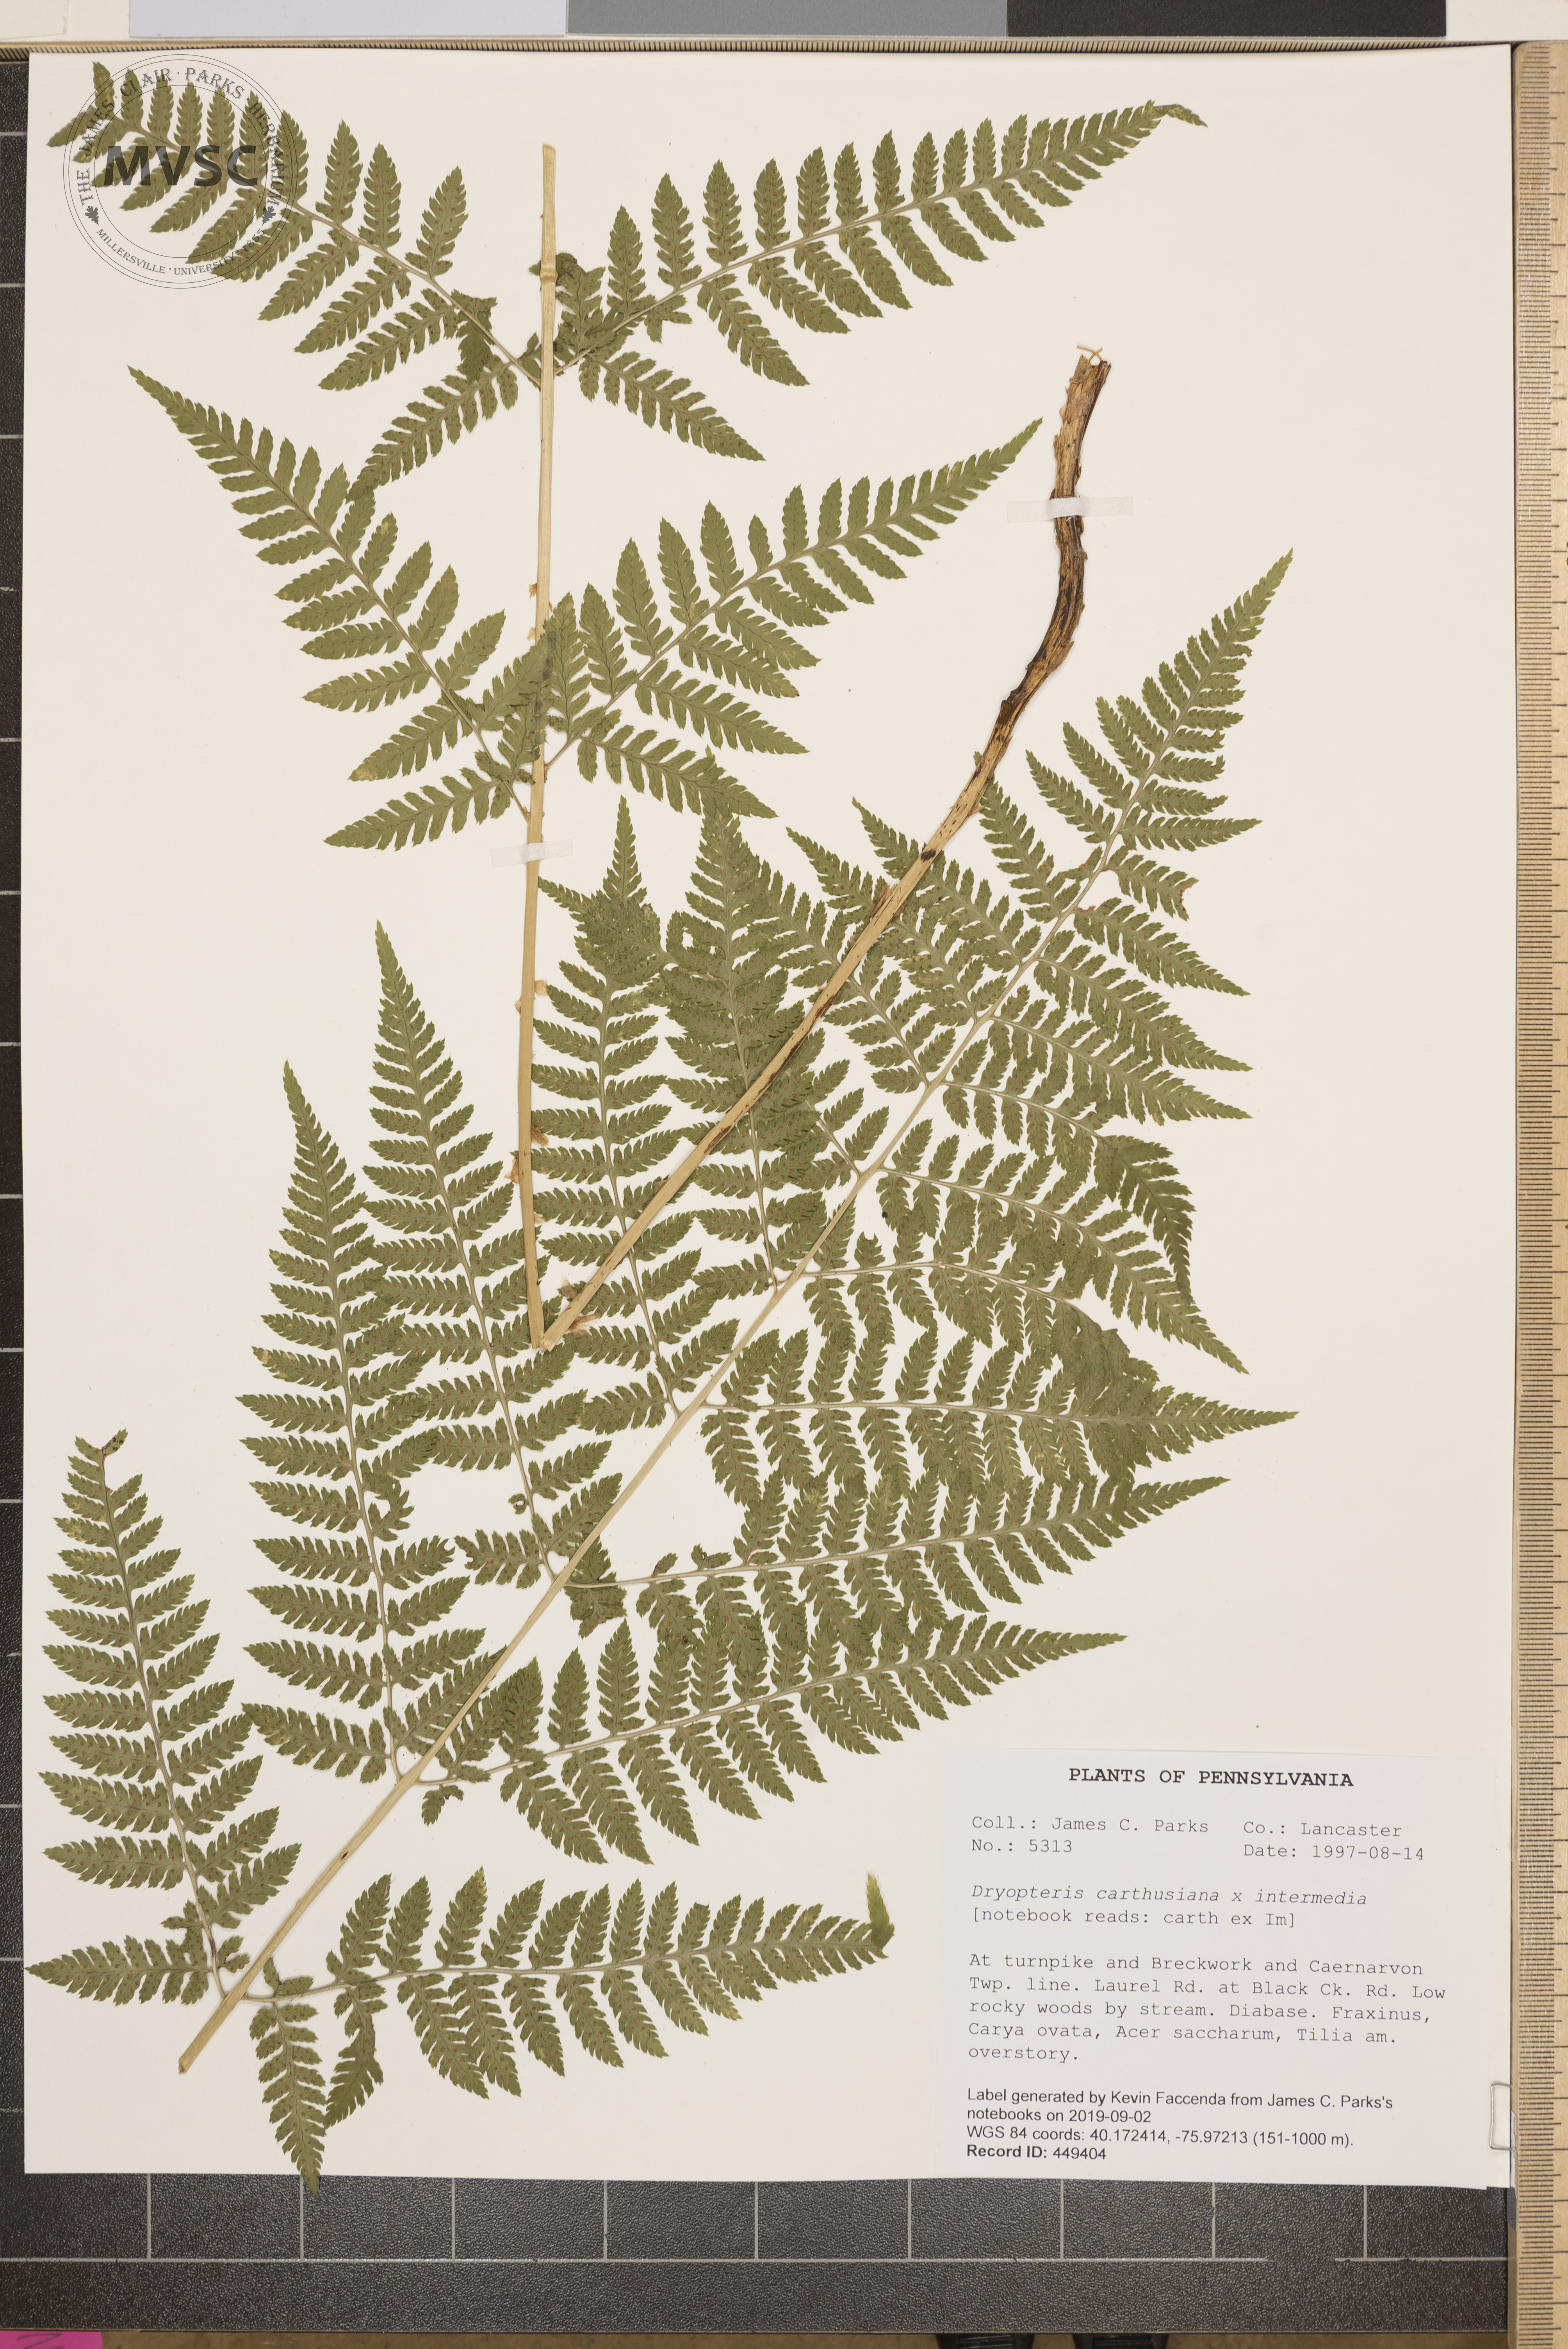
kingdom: Plantae
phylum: Tracheophyta
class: Polypodiopsida
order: Polypodiales
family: Dryopteridaceae
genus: Dryopteris
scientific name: Dryopteris triploidea
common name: Fruitful wood fern
